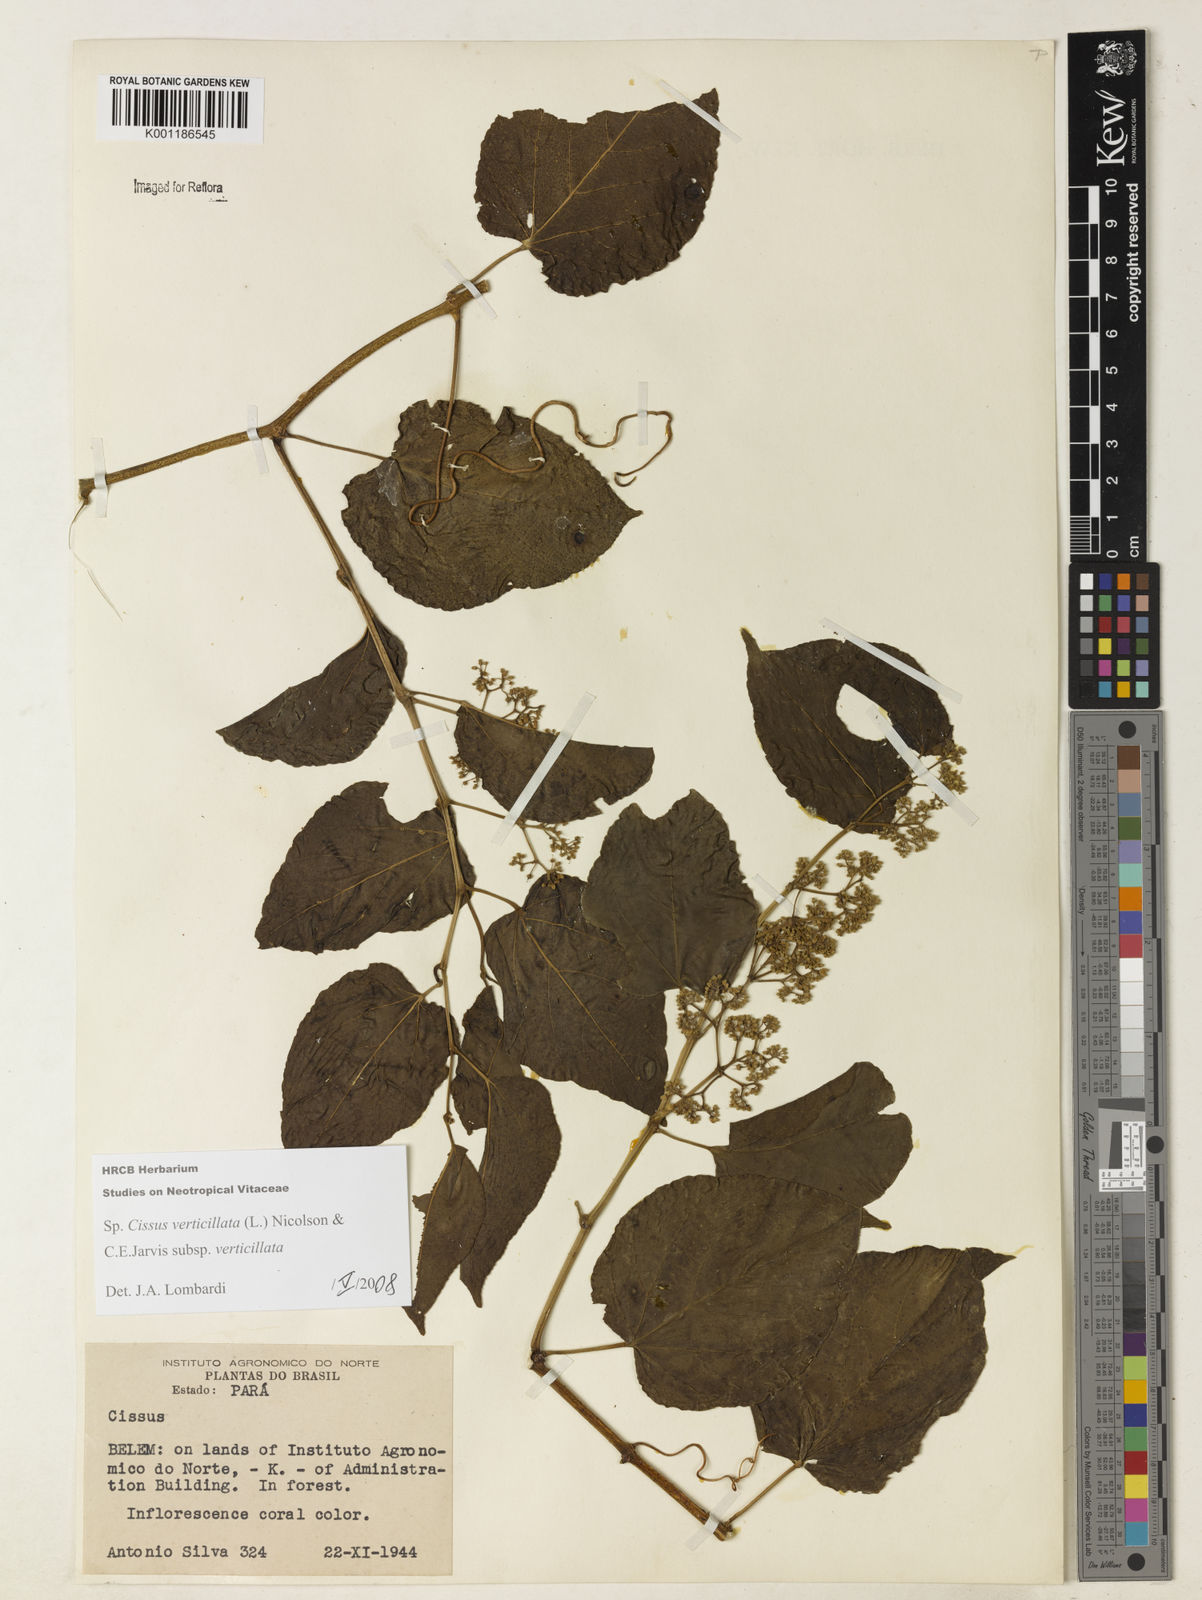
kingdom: Plantae
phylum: Tracheophyta
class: Magnoliopsida
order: Vitales
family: Vitaceae
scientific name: Vitaceae
